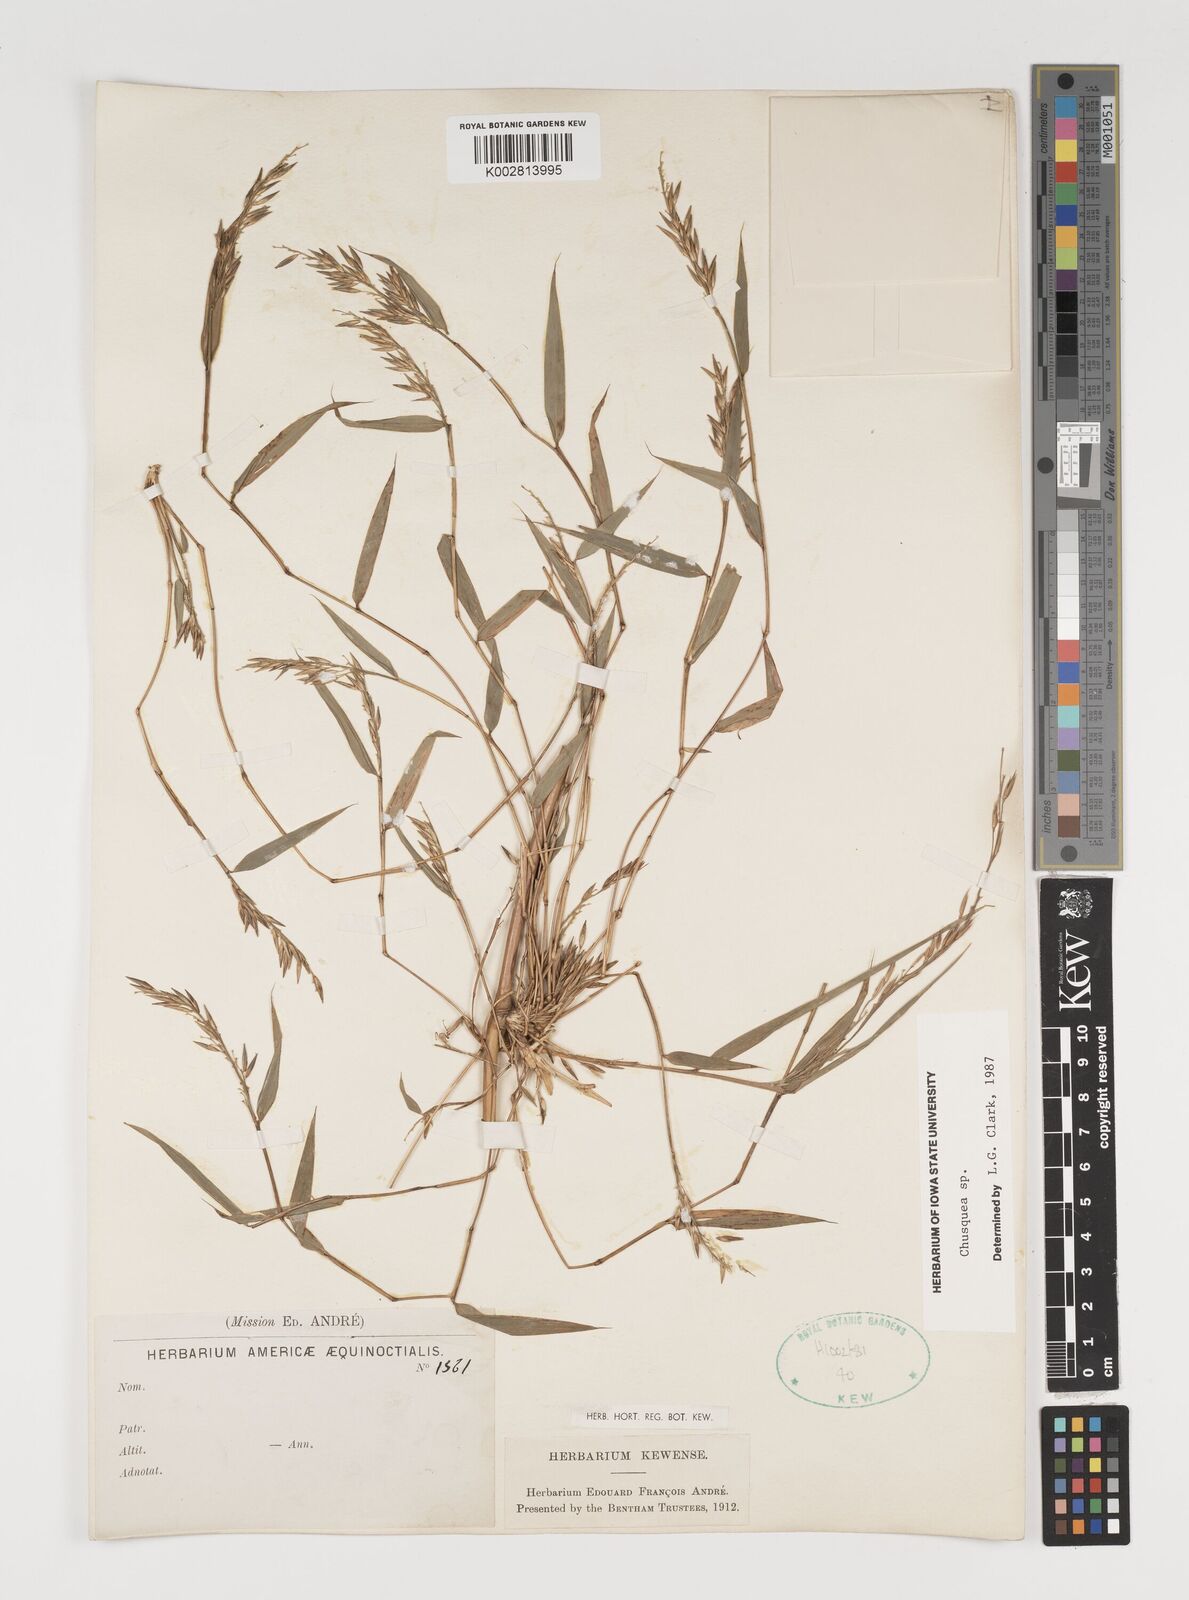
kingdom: Plantae
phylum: Tracheophyta
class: Liliopsida
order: Poales
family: Poaceae
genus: Chusquea
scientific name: Chusquea
